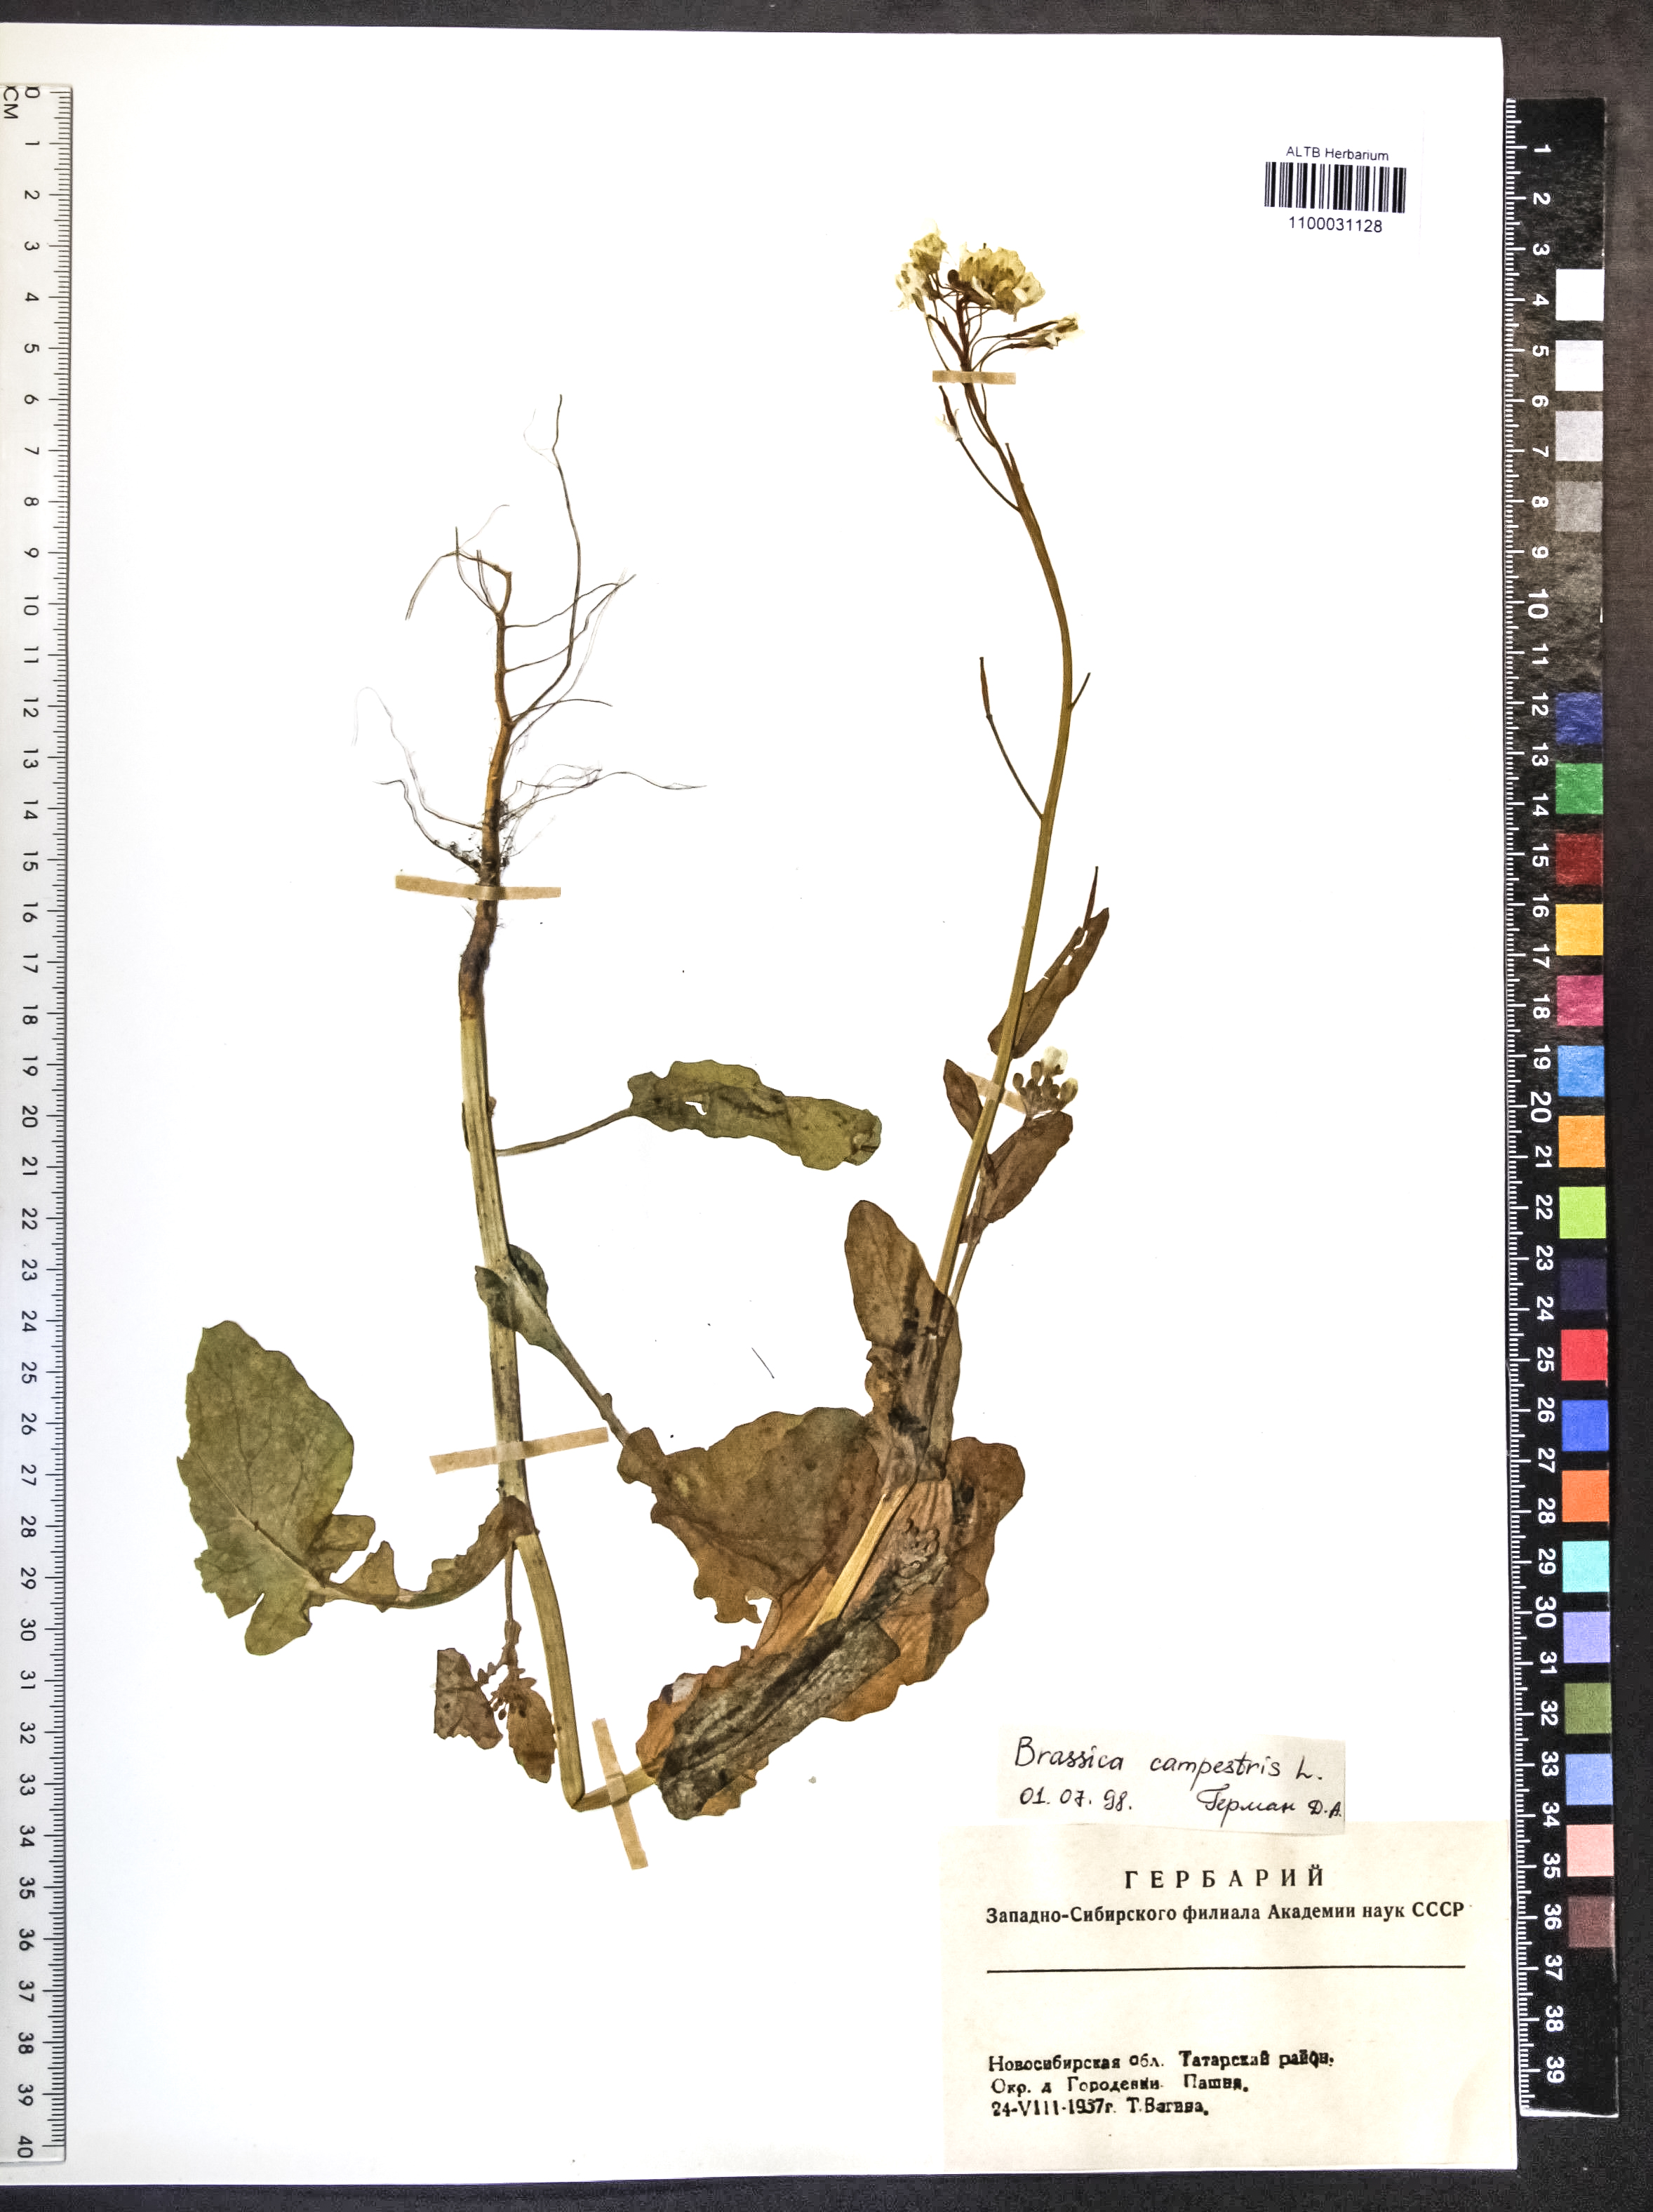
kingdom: Plantae
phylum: Tracheophyta
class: Magnoliopsida
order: Brassicales
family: Brassicaceae
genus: Brassica
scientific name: Brassica rapa
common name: Field mustard
